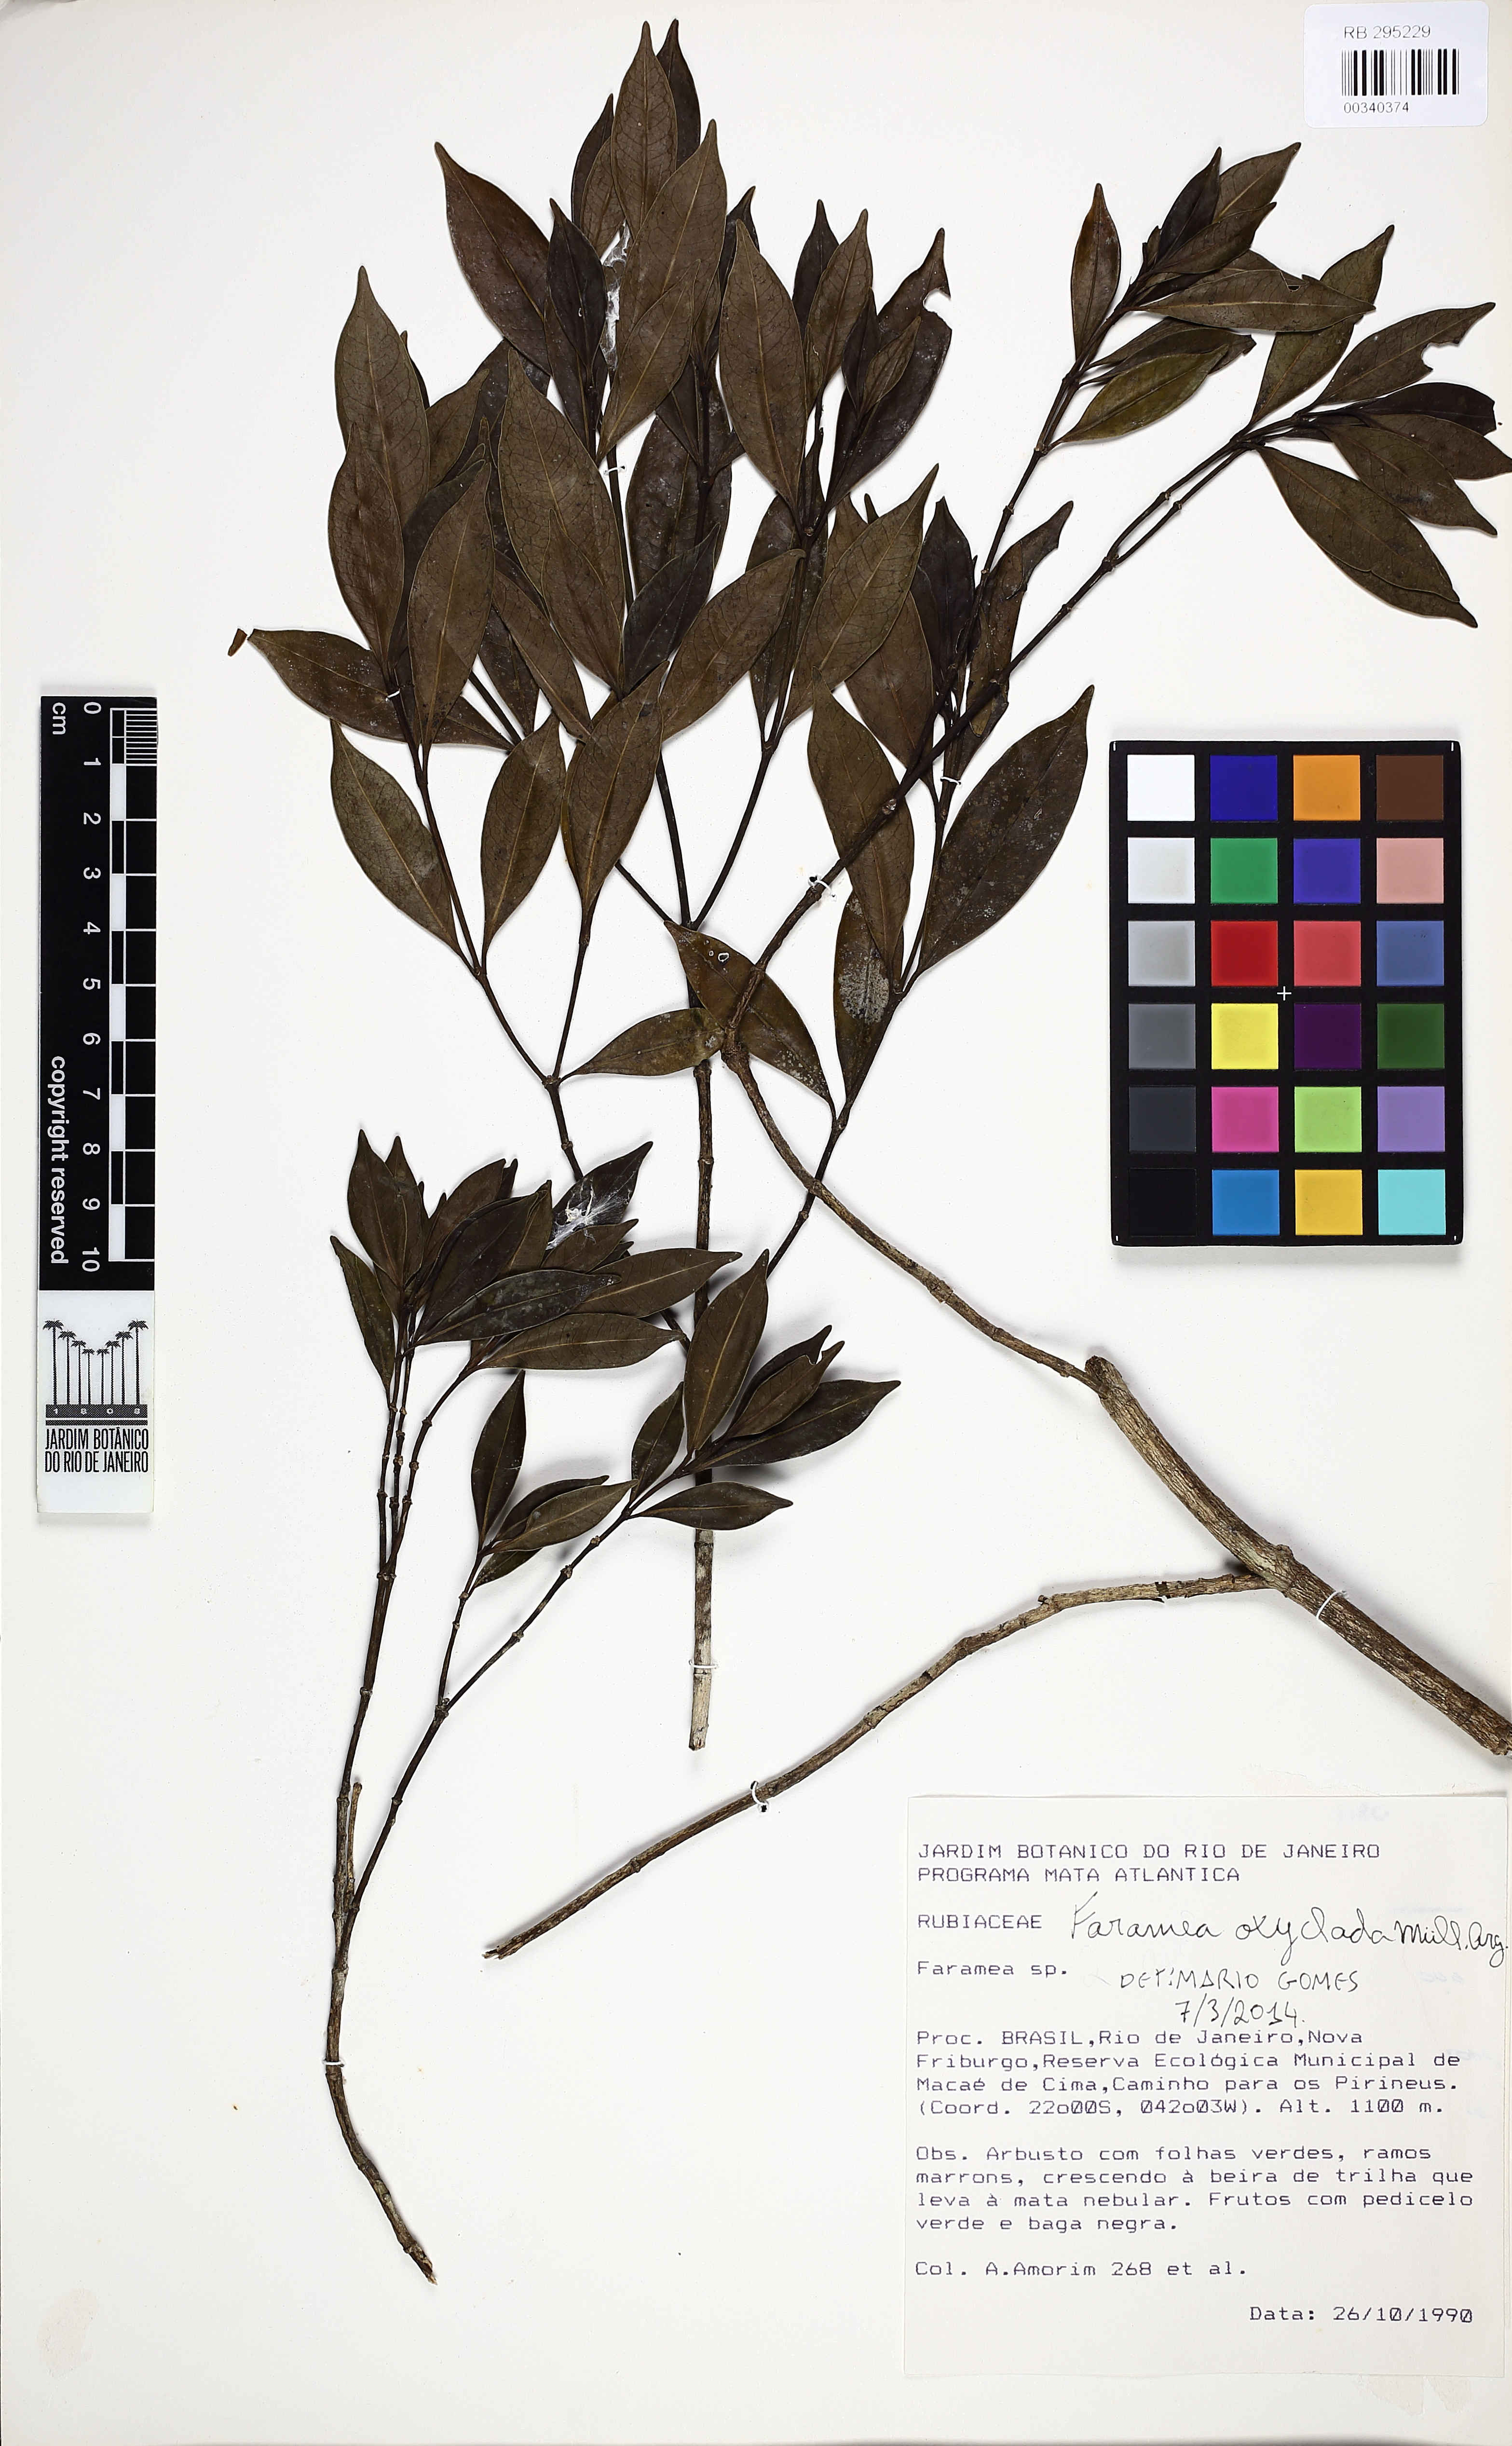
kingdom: Plantae
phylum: Tracheophyta
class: Magnoliopsida
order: Gentianales
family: Rubiaceae
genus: Faramea
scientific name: Faramea oxyclada
